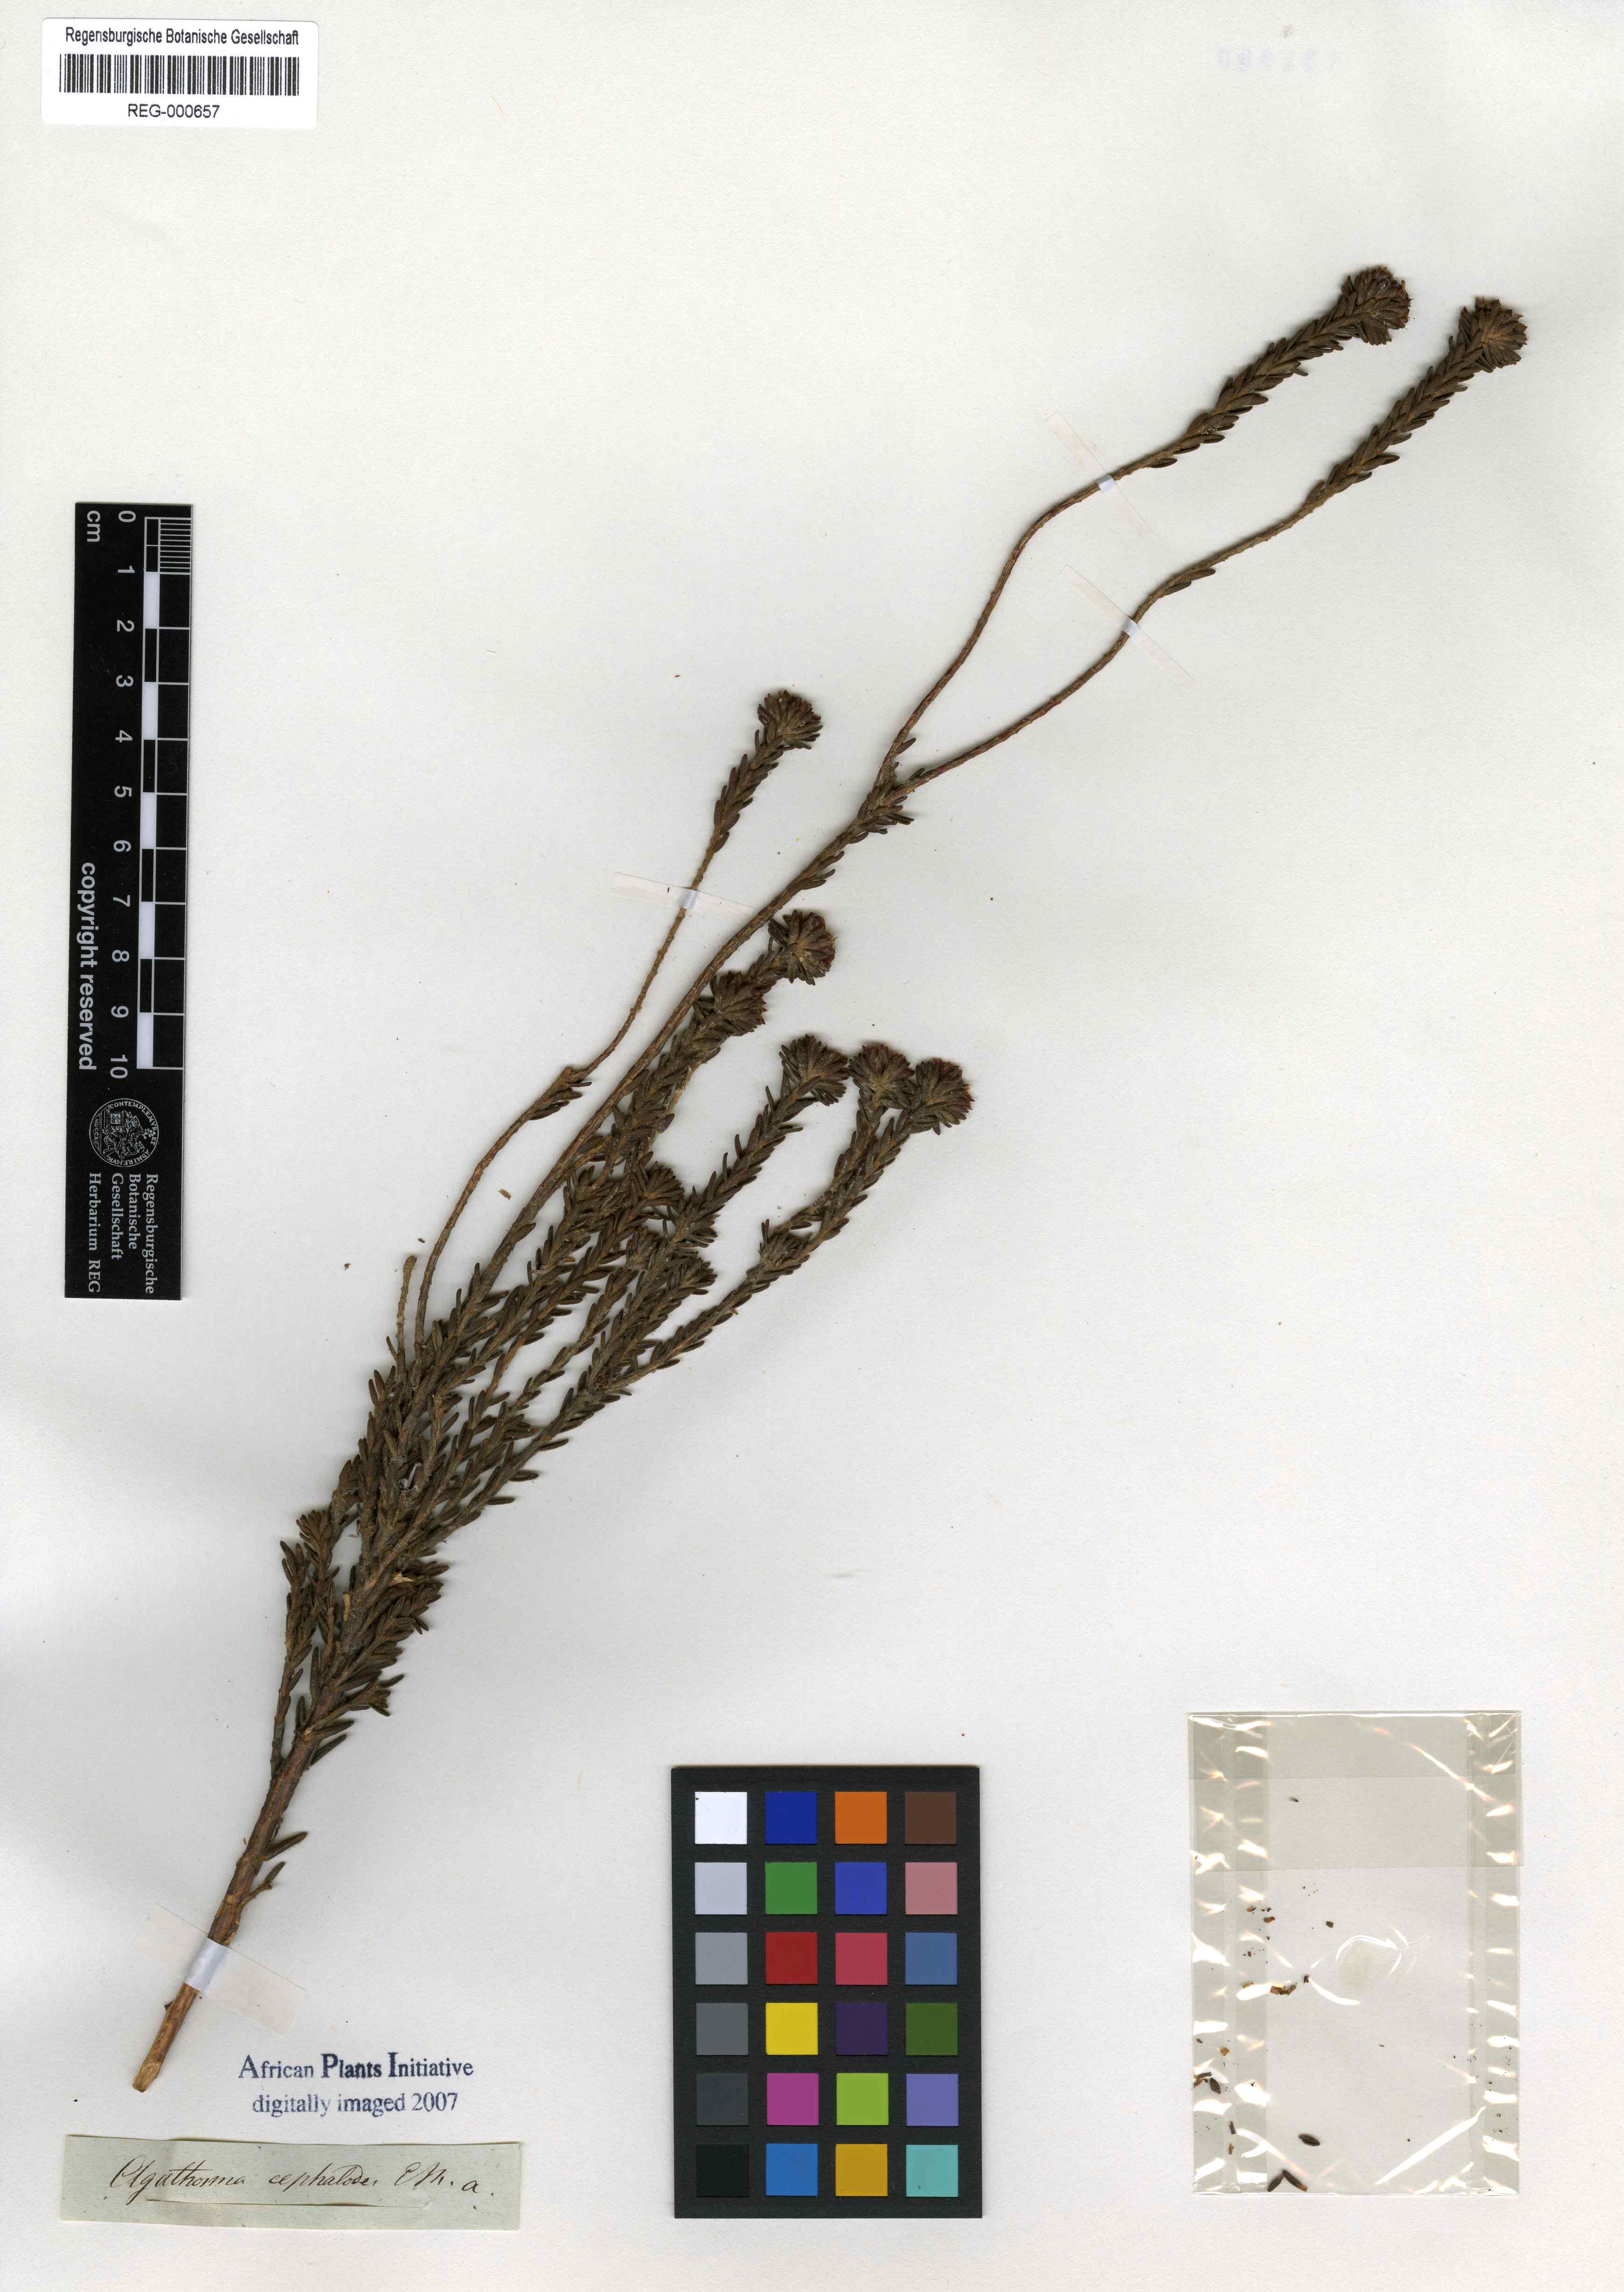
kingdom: Plantae
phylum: Tracheophyta
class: Magnoliopsida
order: Sapindales
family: Rutaceae
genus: Agathosma
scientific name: Agathosma involucrata
